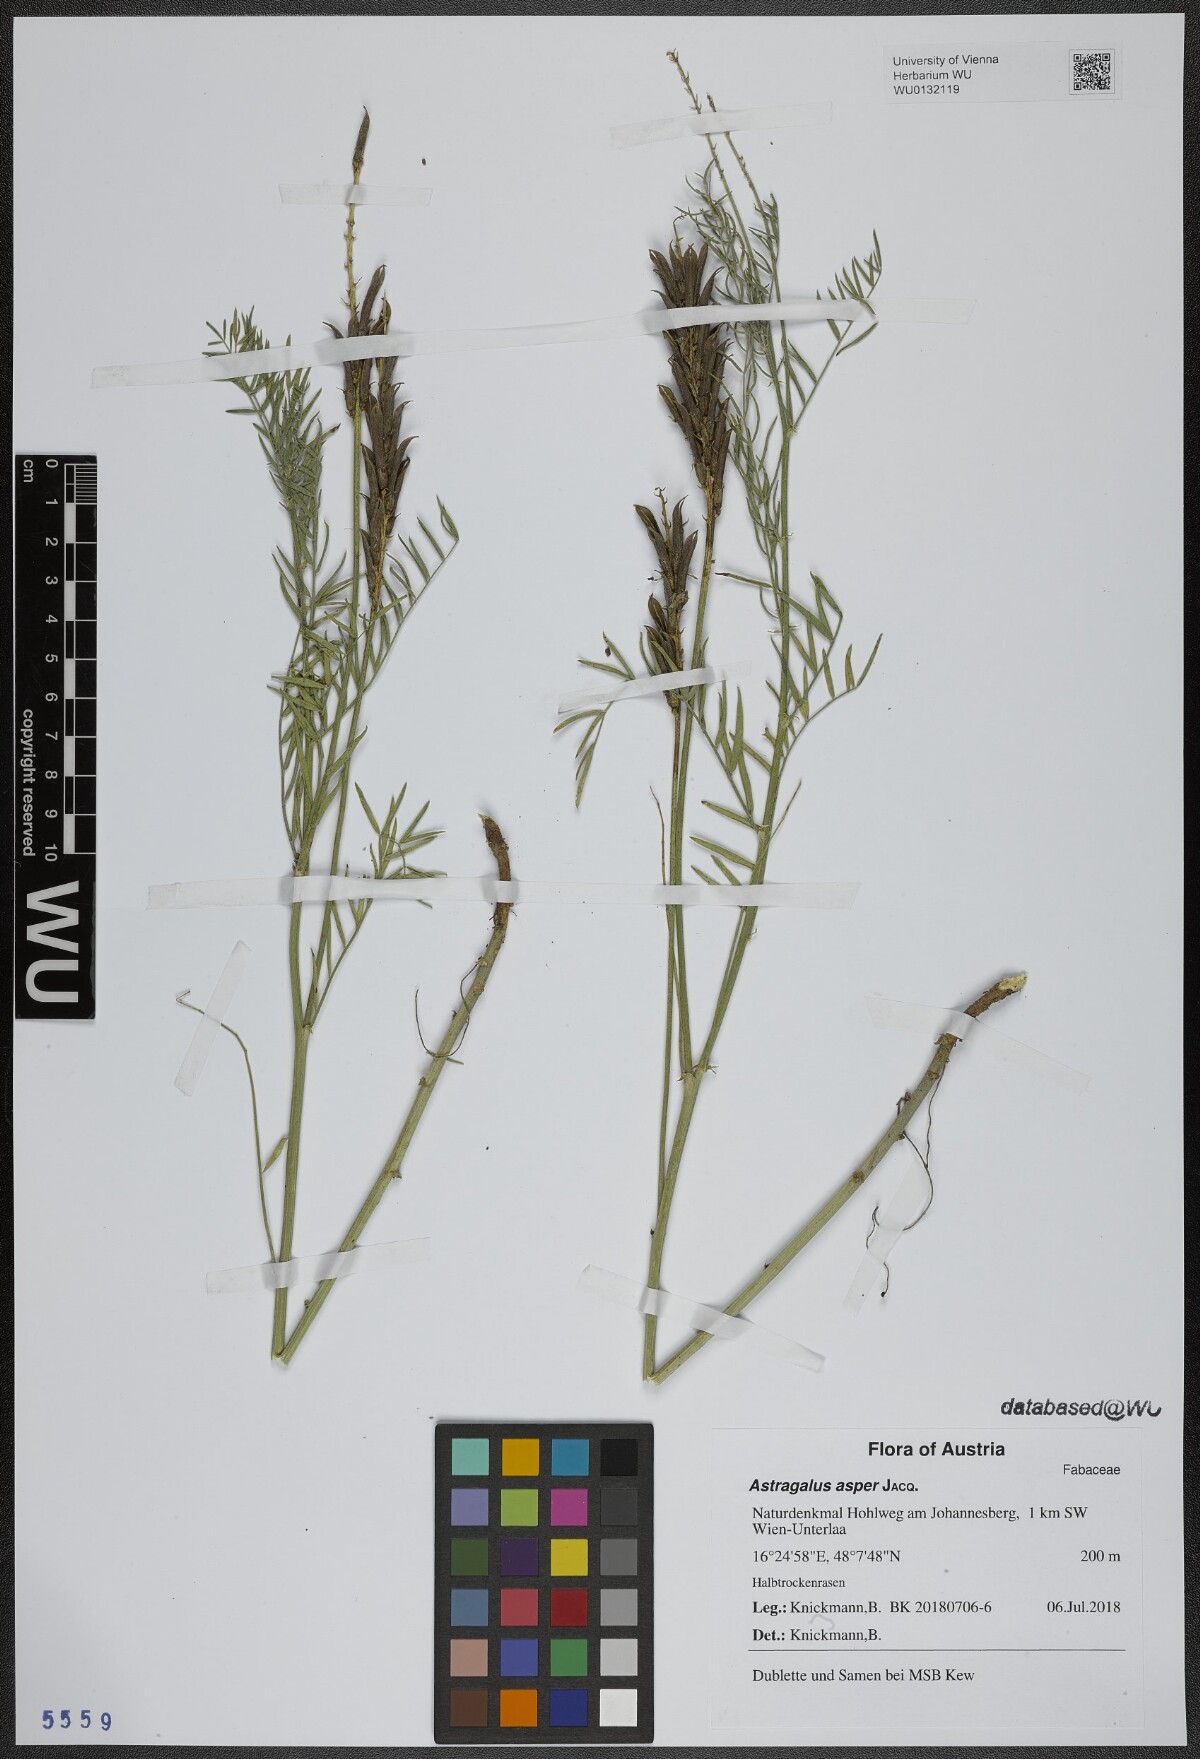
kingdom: Plantae
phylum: Tracheophyta
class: Magnoliopsida
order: Fabales
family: Fabaceae
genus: Astragalus
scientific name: Astragalus asper
